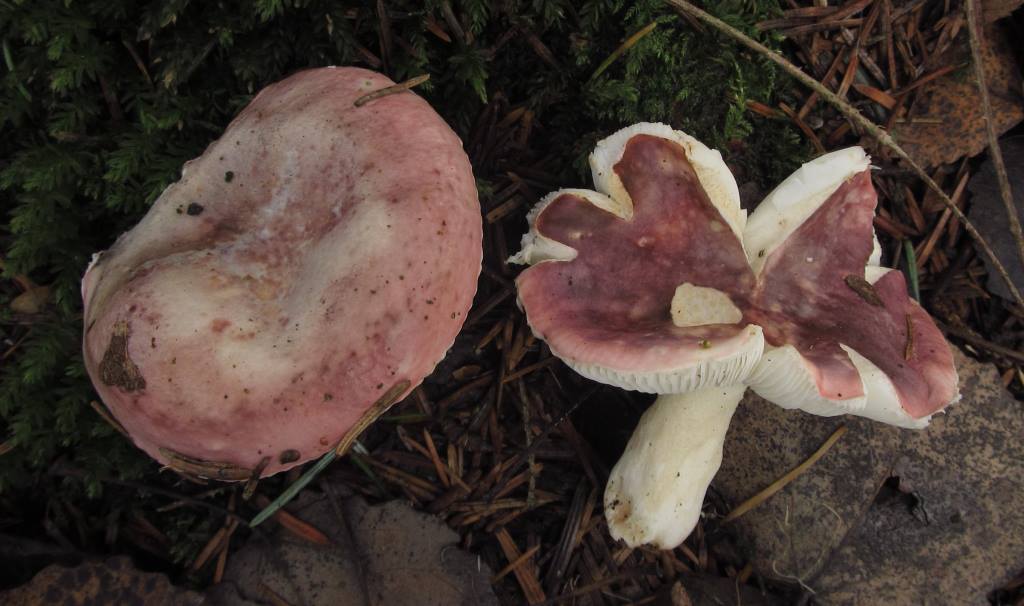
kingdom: Fungi
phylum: Basidiomycota
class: Agaricomycetes
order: Russulales
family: Russulaceae
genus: Russula
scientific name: Russula
